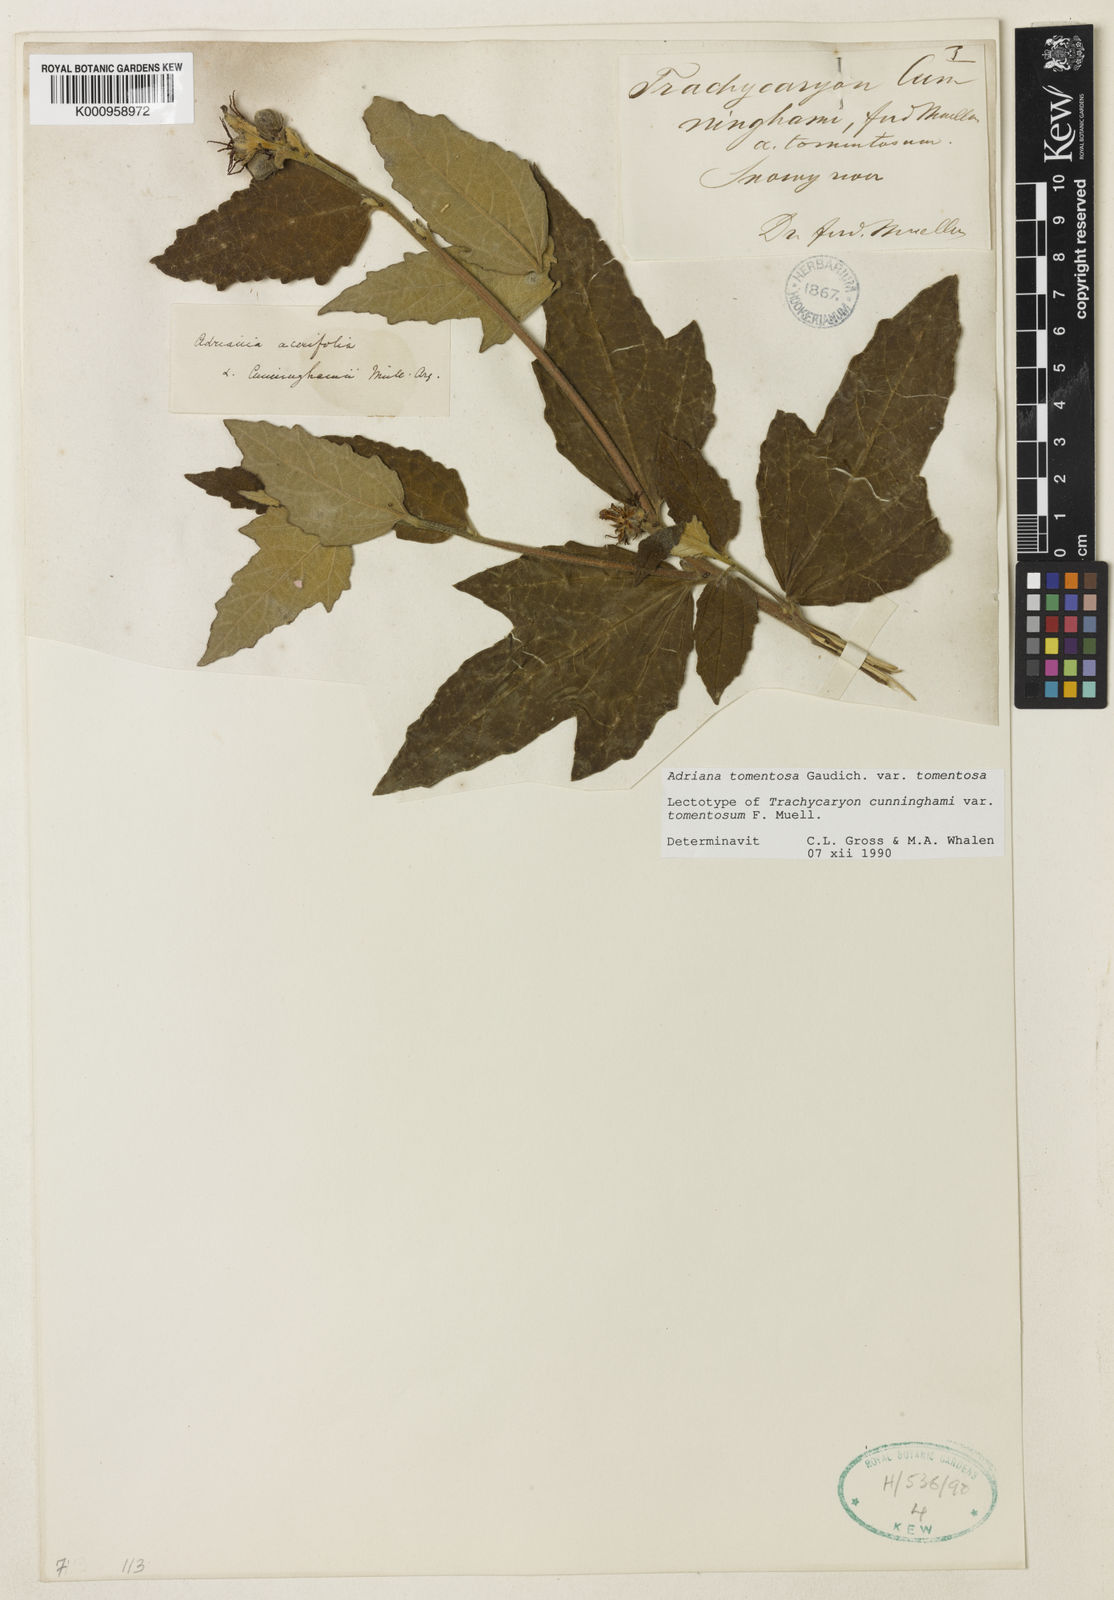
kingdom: Plantae
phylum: Tracheophyta
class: Magnoliopsida
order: Malpighiales
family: Euphorbiaceae
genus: Adriana
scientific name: Adriana tomentosa
